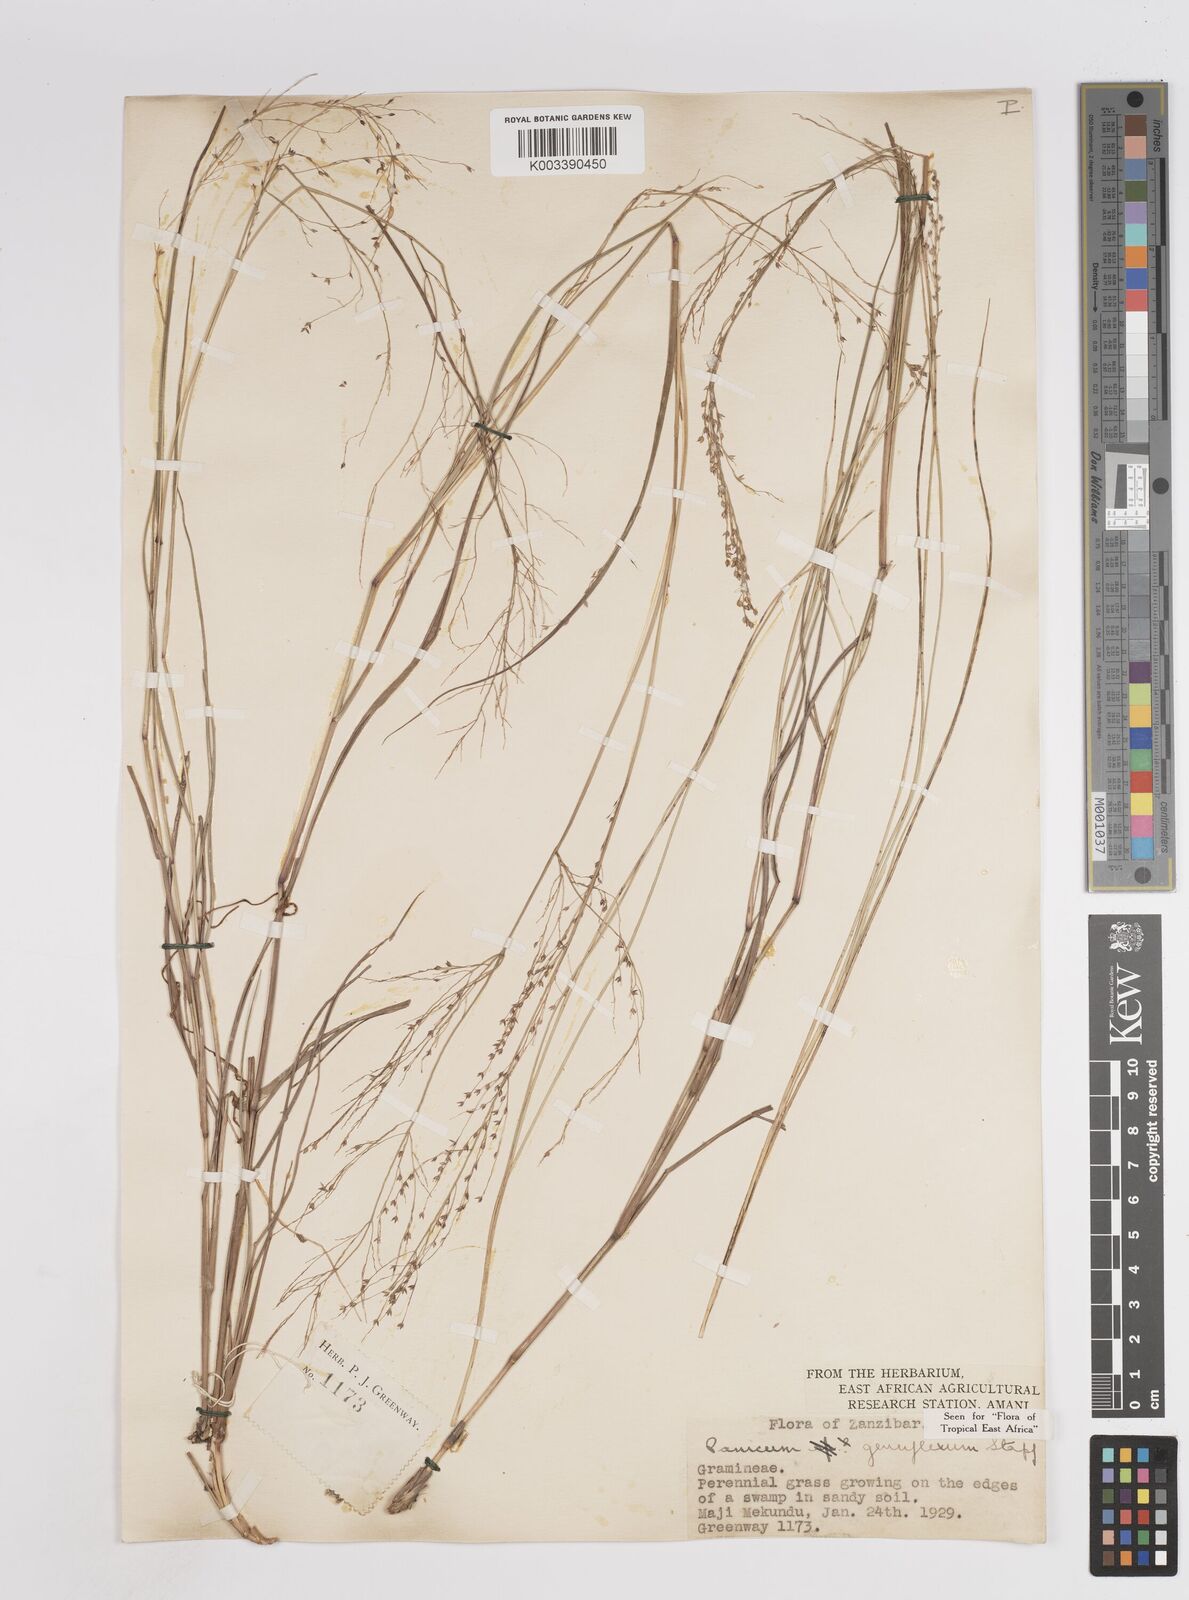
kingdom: Plantae
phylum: Tracheophyta
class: Liliopsida
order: Poales
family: Poaceae
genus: Panicum
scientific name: Panicum genuflexum
